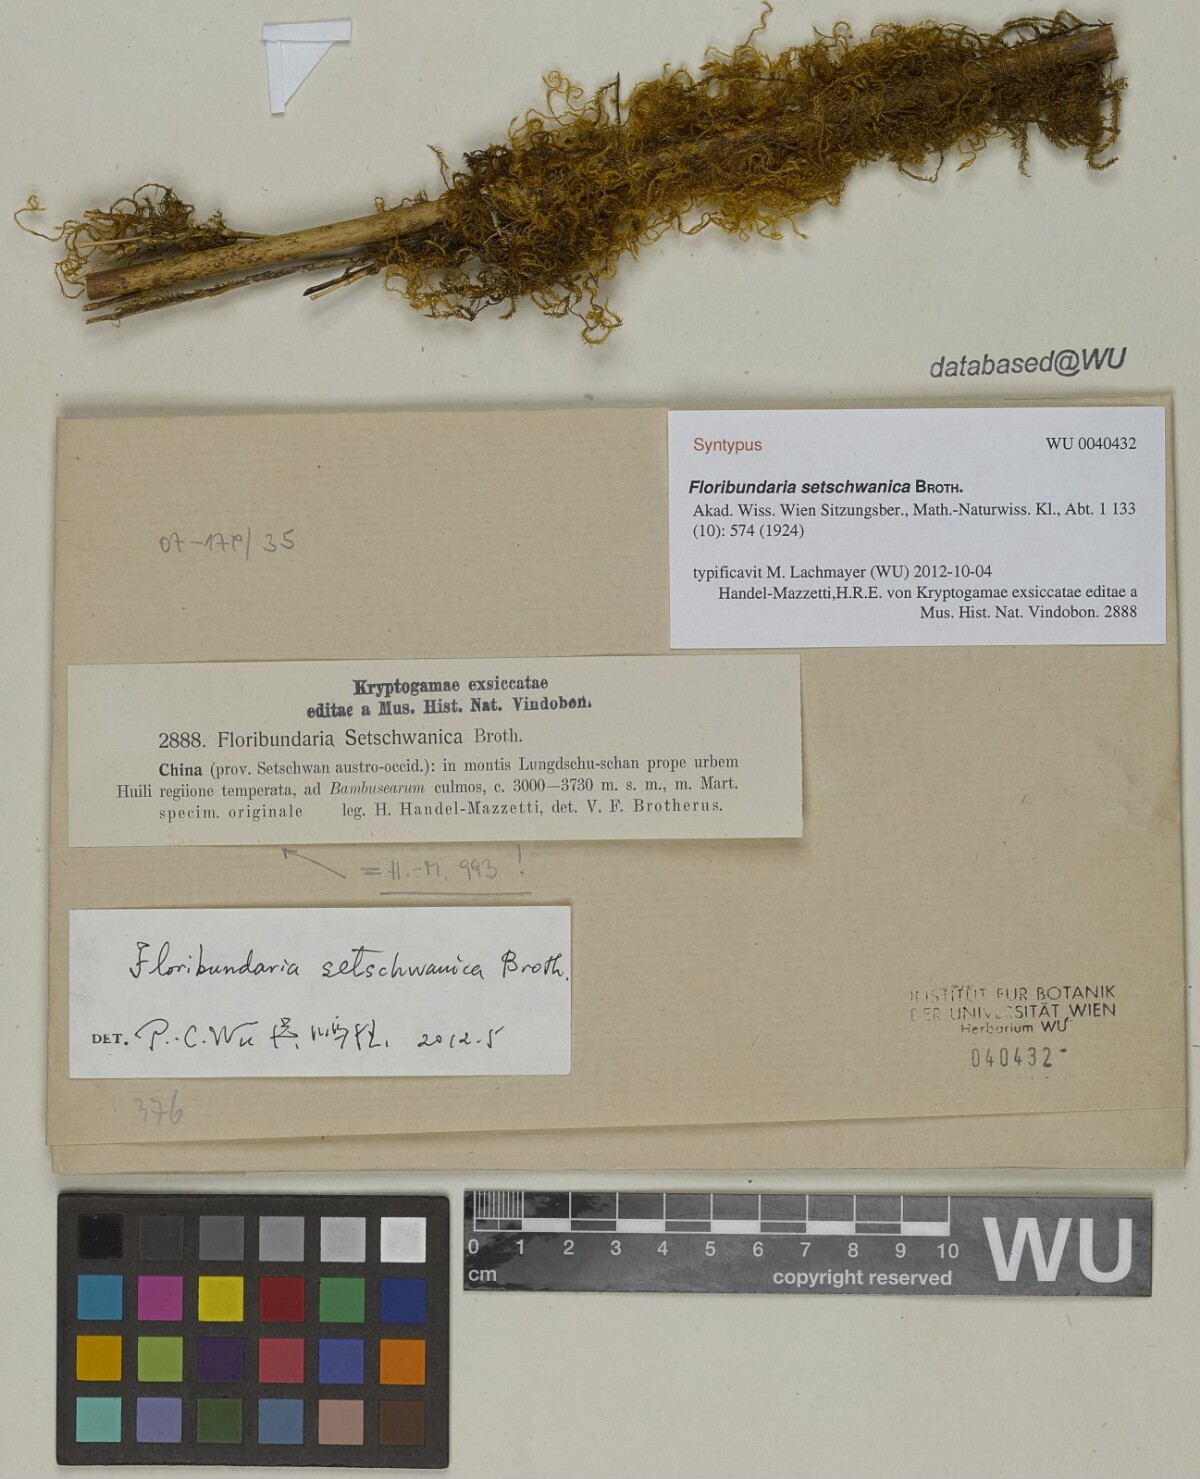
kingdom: Plantae
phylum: Bryophyta
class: Bryopsida
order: Hypnales
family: Meteoriaceae
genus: Floribundaria
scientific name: Floribundaria setschwanica
